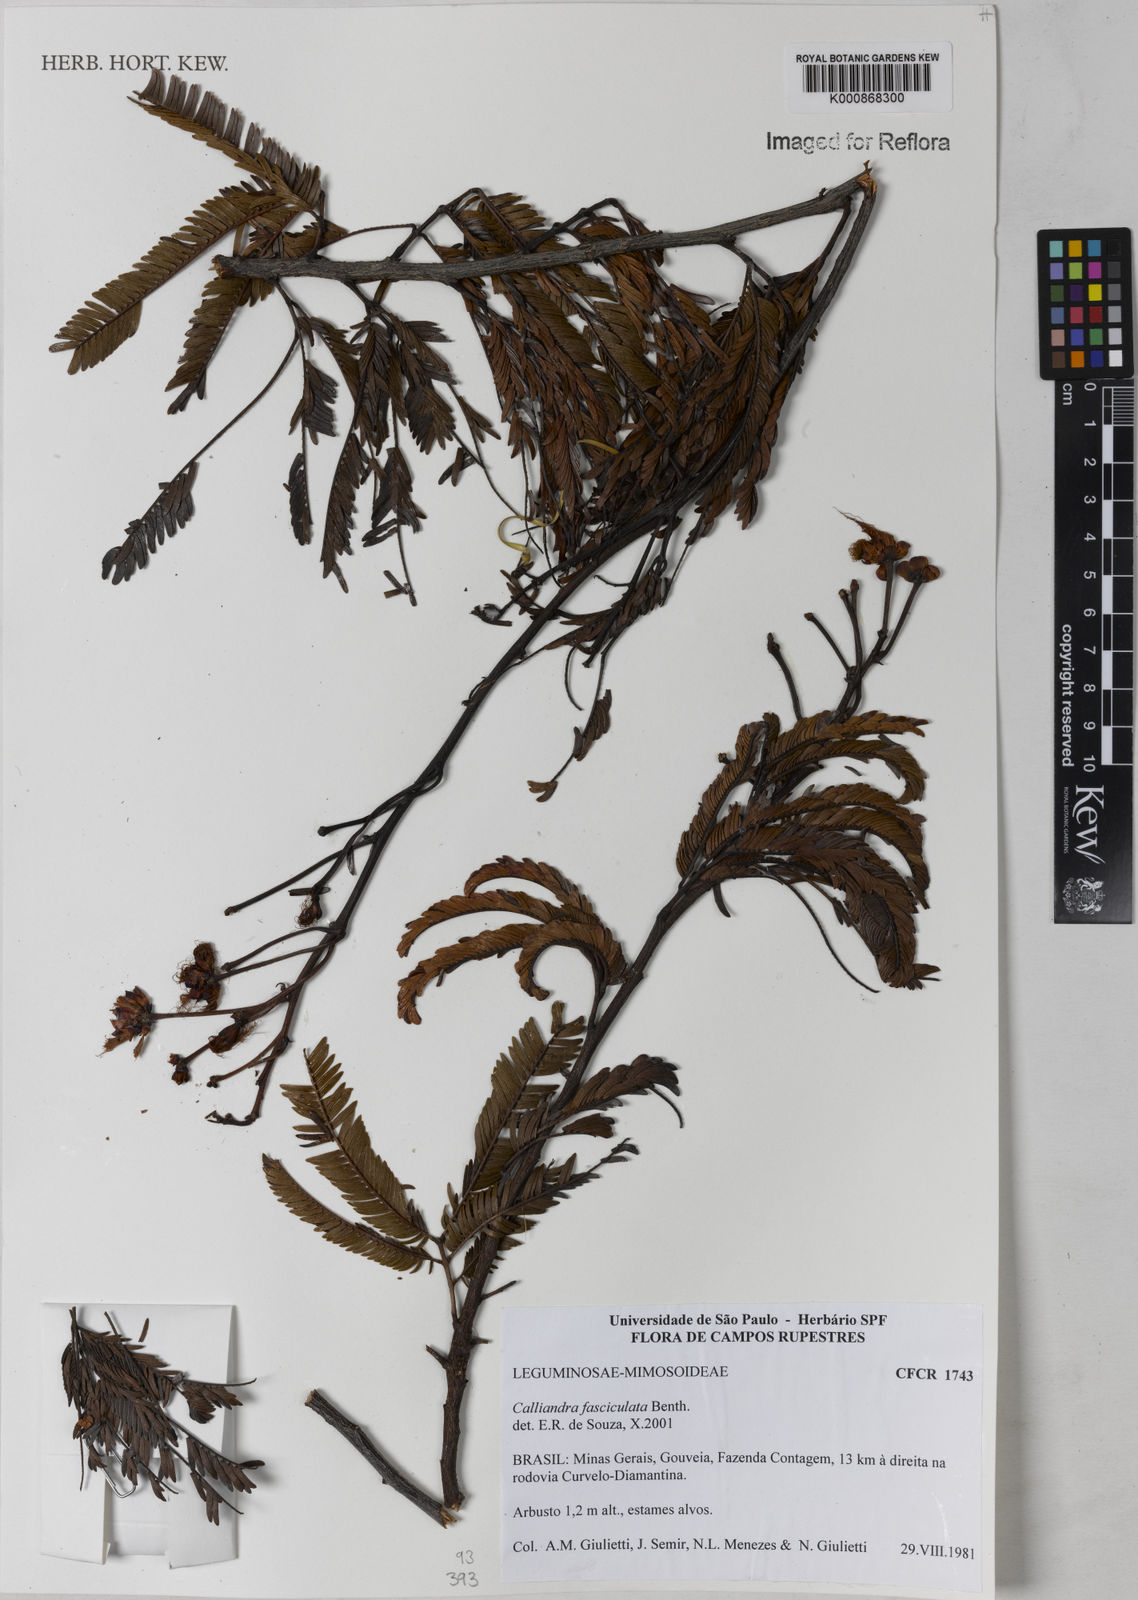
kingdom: Plantae
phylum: Tracheophyta
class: Magnoliopsida
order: Fabales
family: Fabaceae
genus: Calliandra
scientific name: Calliandra fasciculata
